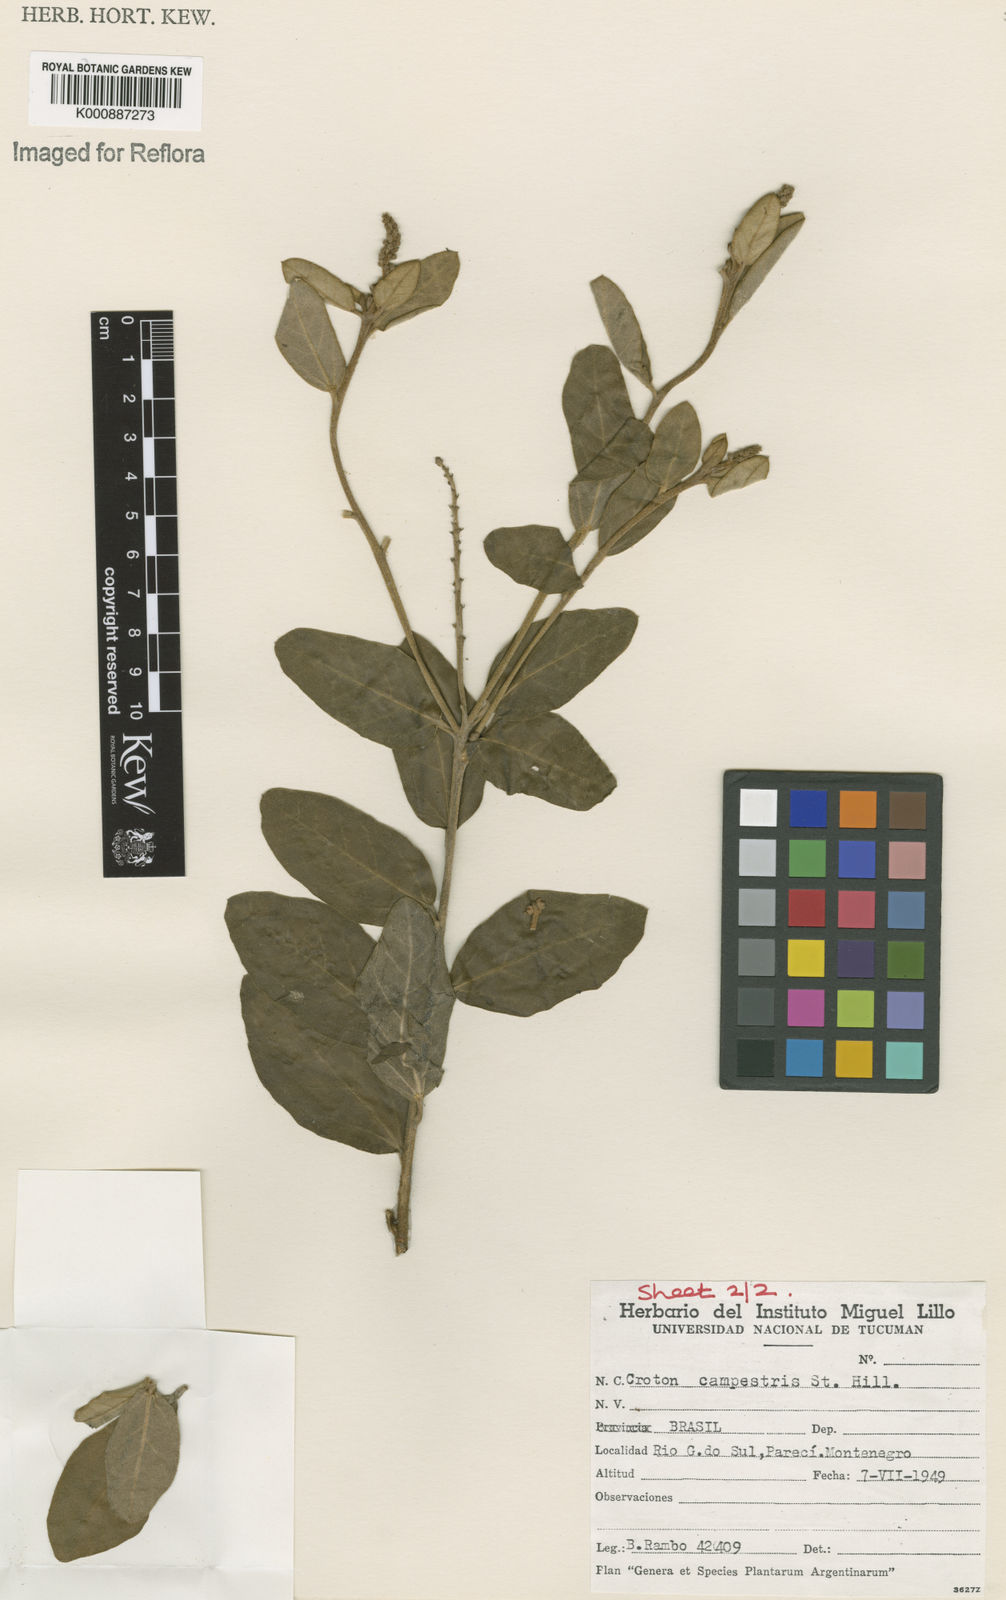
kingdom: Plantae
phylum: Tracheophyta
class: Magnoliopsida
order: Malpighiales
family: Euphorbiaceae
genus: Croton
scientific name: Croton campestris
